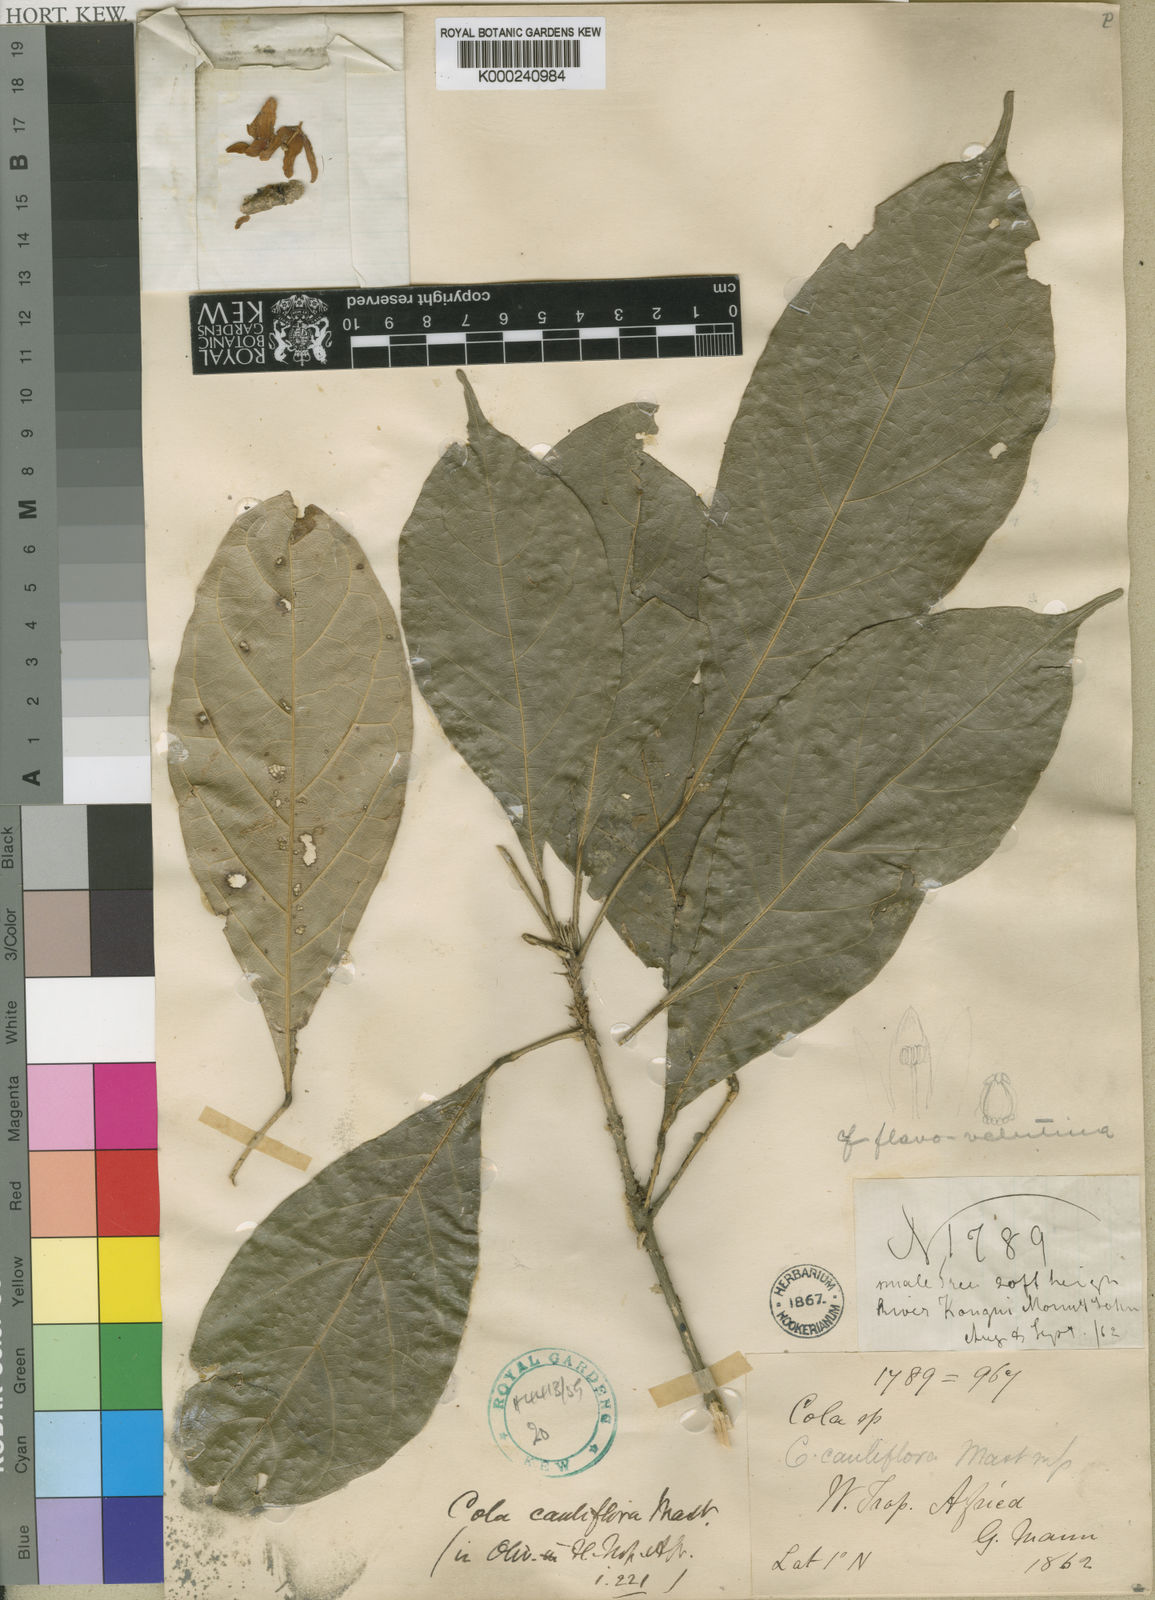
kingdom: Plantae
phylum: Tracheophyta
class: Magnoliopsida
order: Malvales
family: Malvaceae
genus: Cola
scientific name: Cola flavovelutina
